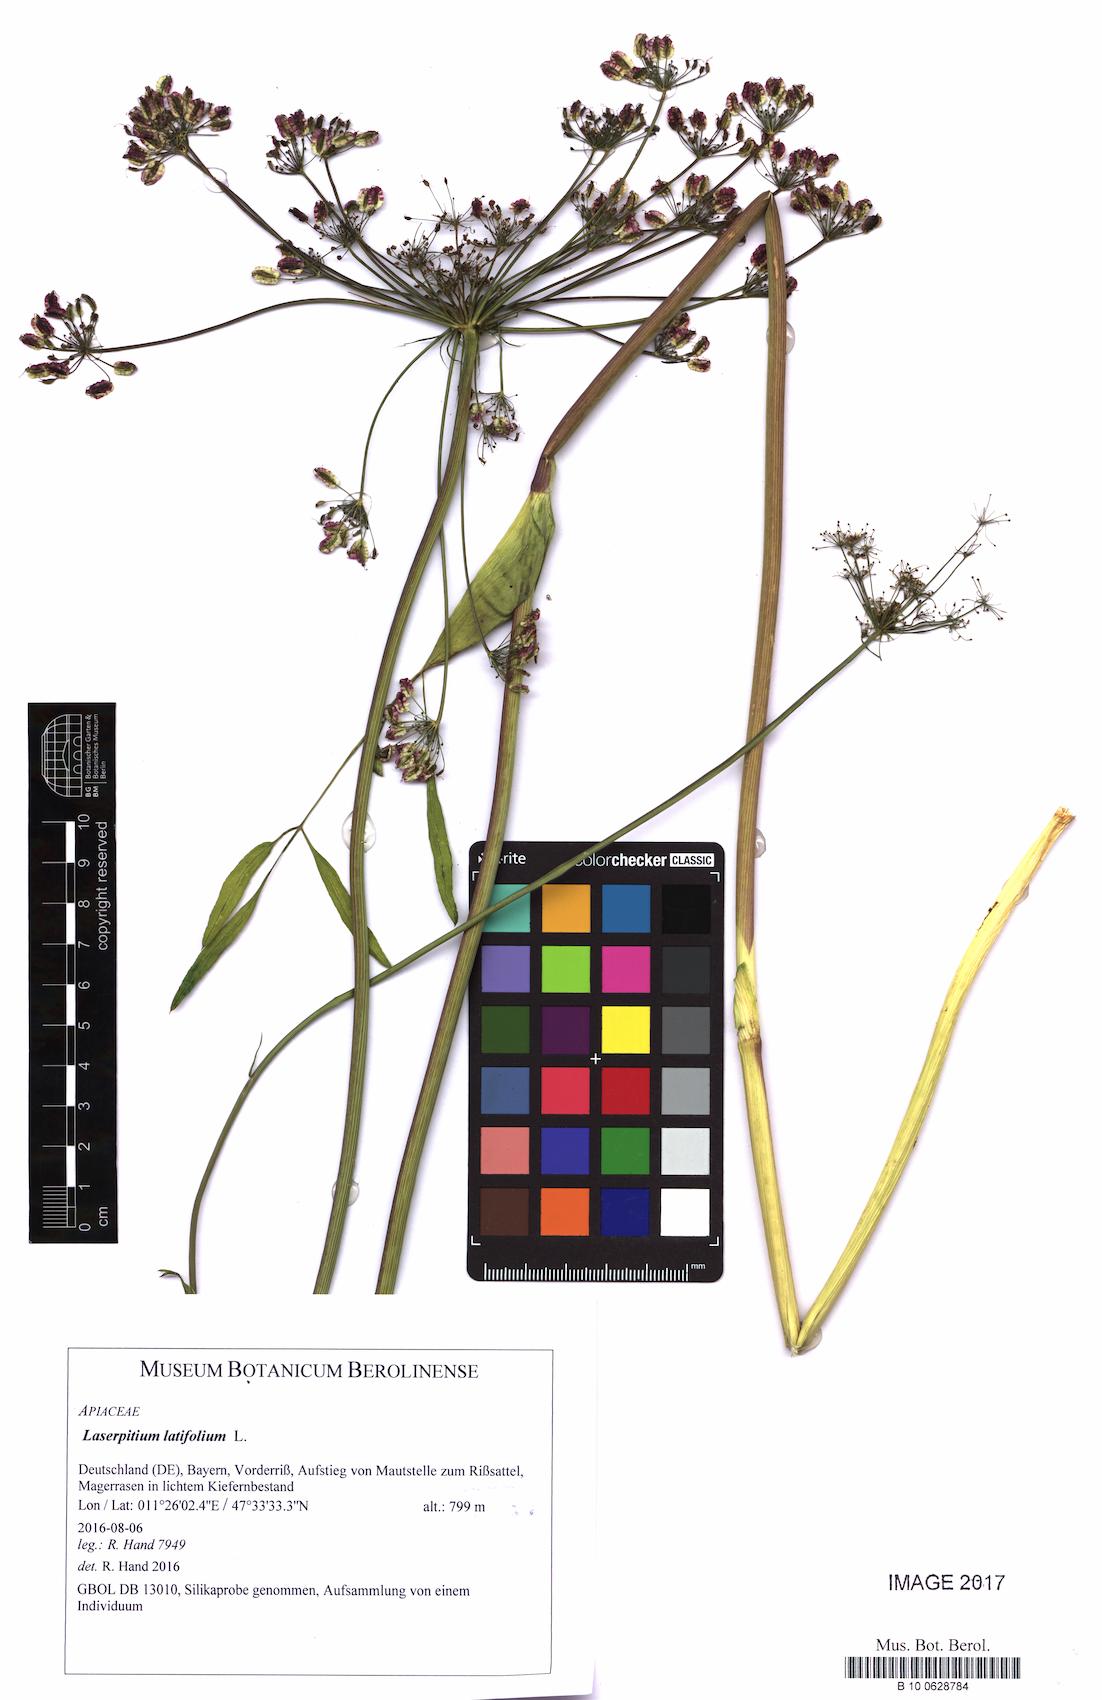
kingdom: Plantae
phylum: Tracheophyta
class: Magnoliopsida
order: Apiales
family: Apiaceae
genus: Laserpitium
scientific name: Laserpitium latifolium
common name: Broadleaf sermountain
